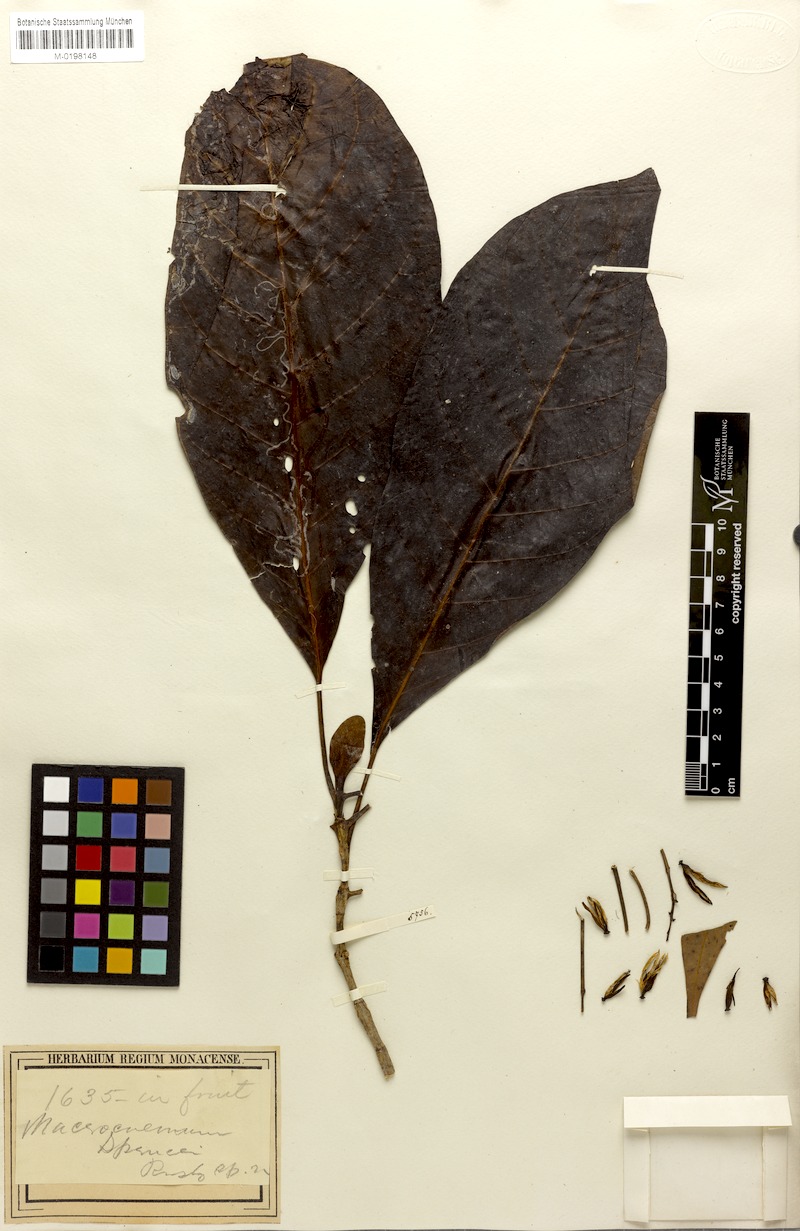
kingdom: Plantae
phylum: Tracheophyta
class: Magnoliopsida
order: Gentianales
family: Rubiaceae
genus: Macrocnemum
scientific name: Macrocnemum roseum
